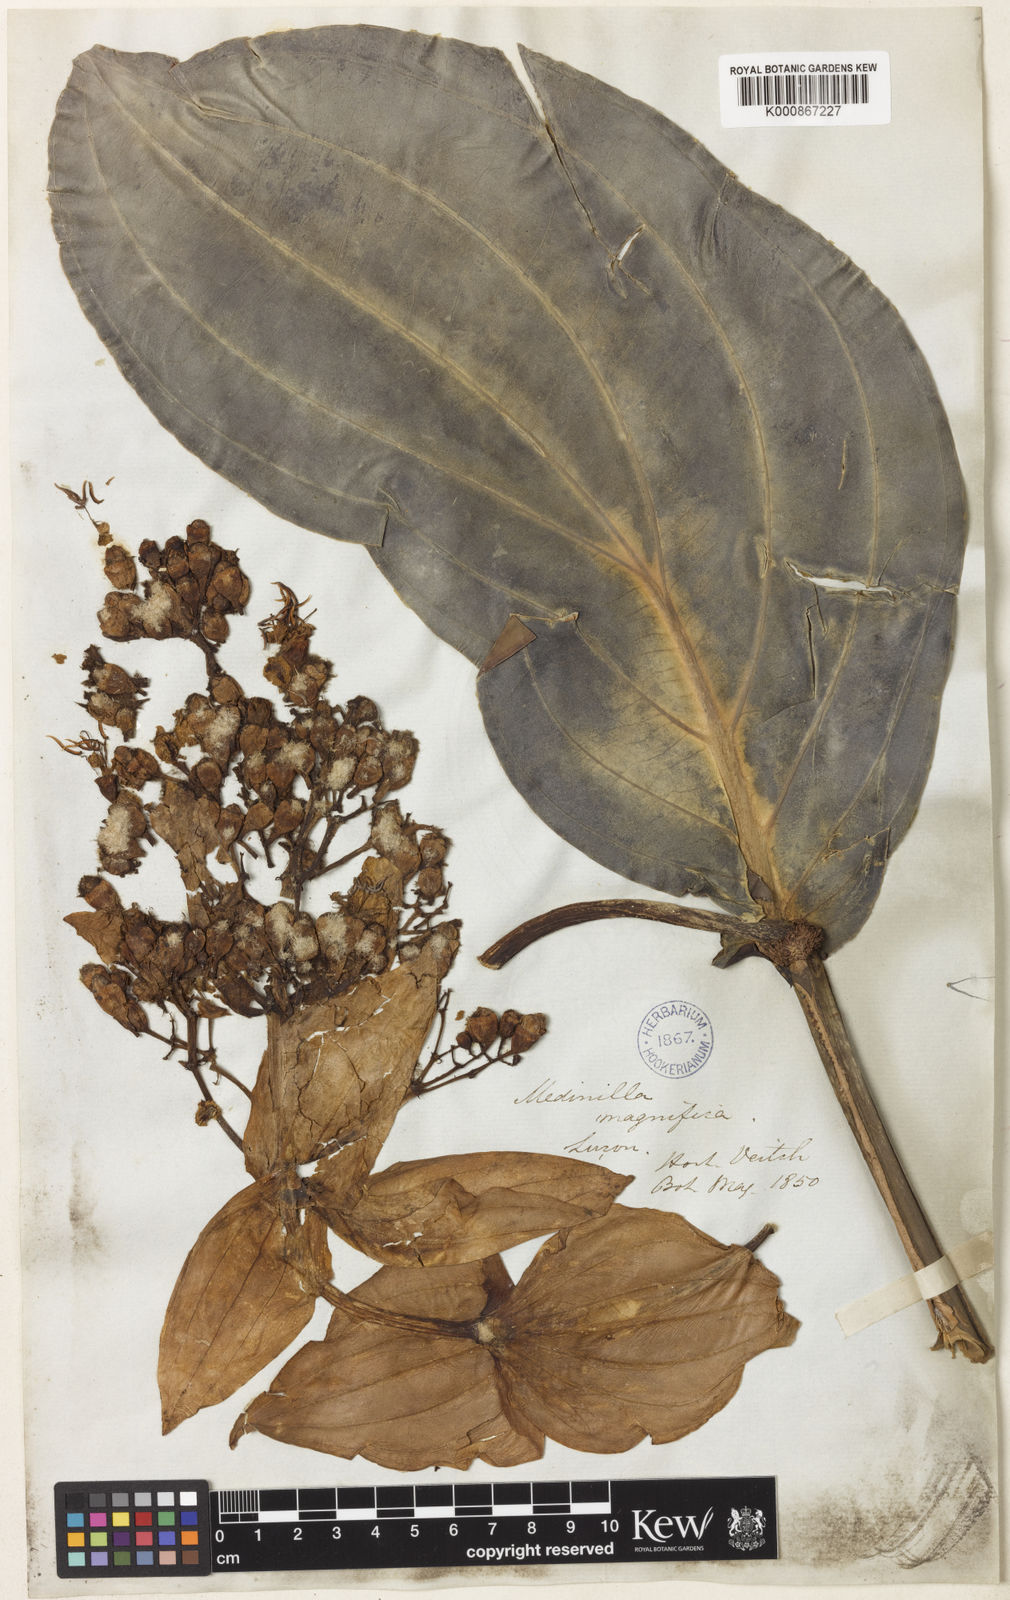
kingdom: Plantae
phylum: Tracheophyta
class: Magnoliopsida
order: Myrtales
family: Melastomataceae
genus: Medinilla
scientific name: Medinilla magnifica
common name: Showy medinilla
